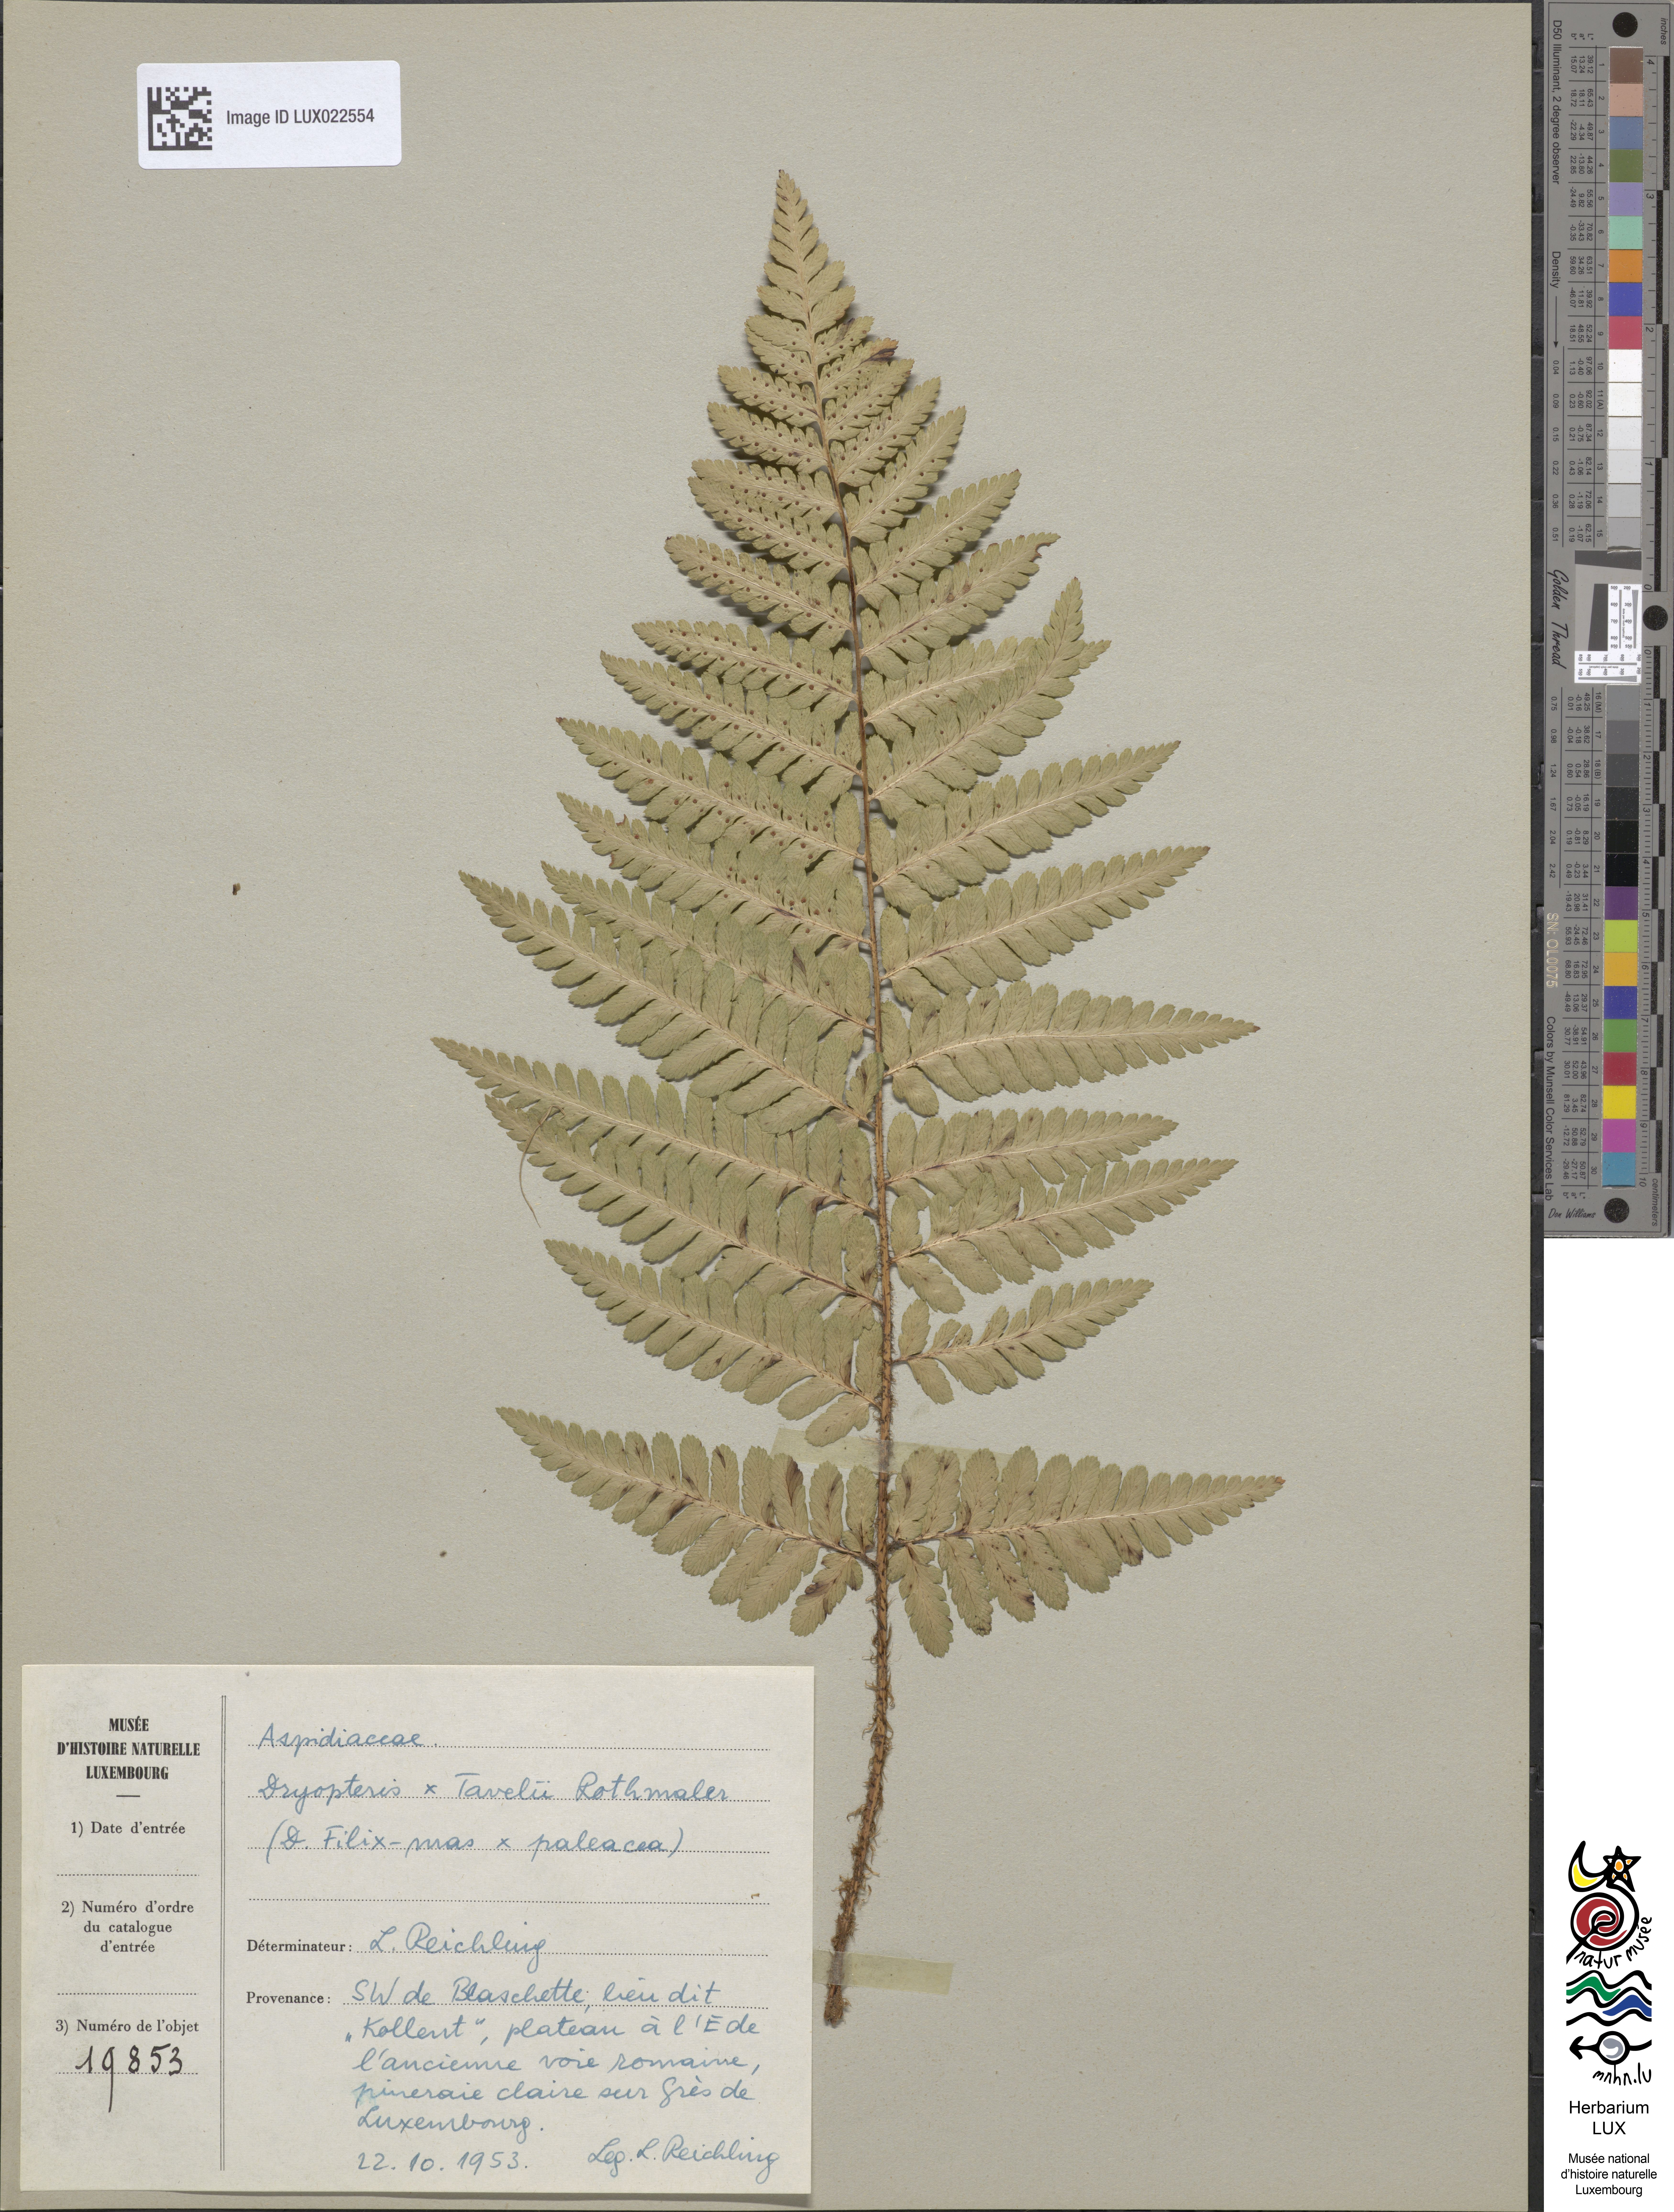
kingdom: Plantae
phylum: Tracheophyta
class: Polypodiopsida
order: Polypodiales
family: Dryopteridaceae
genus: Dryopteris
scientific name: Dryopteris borreri
